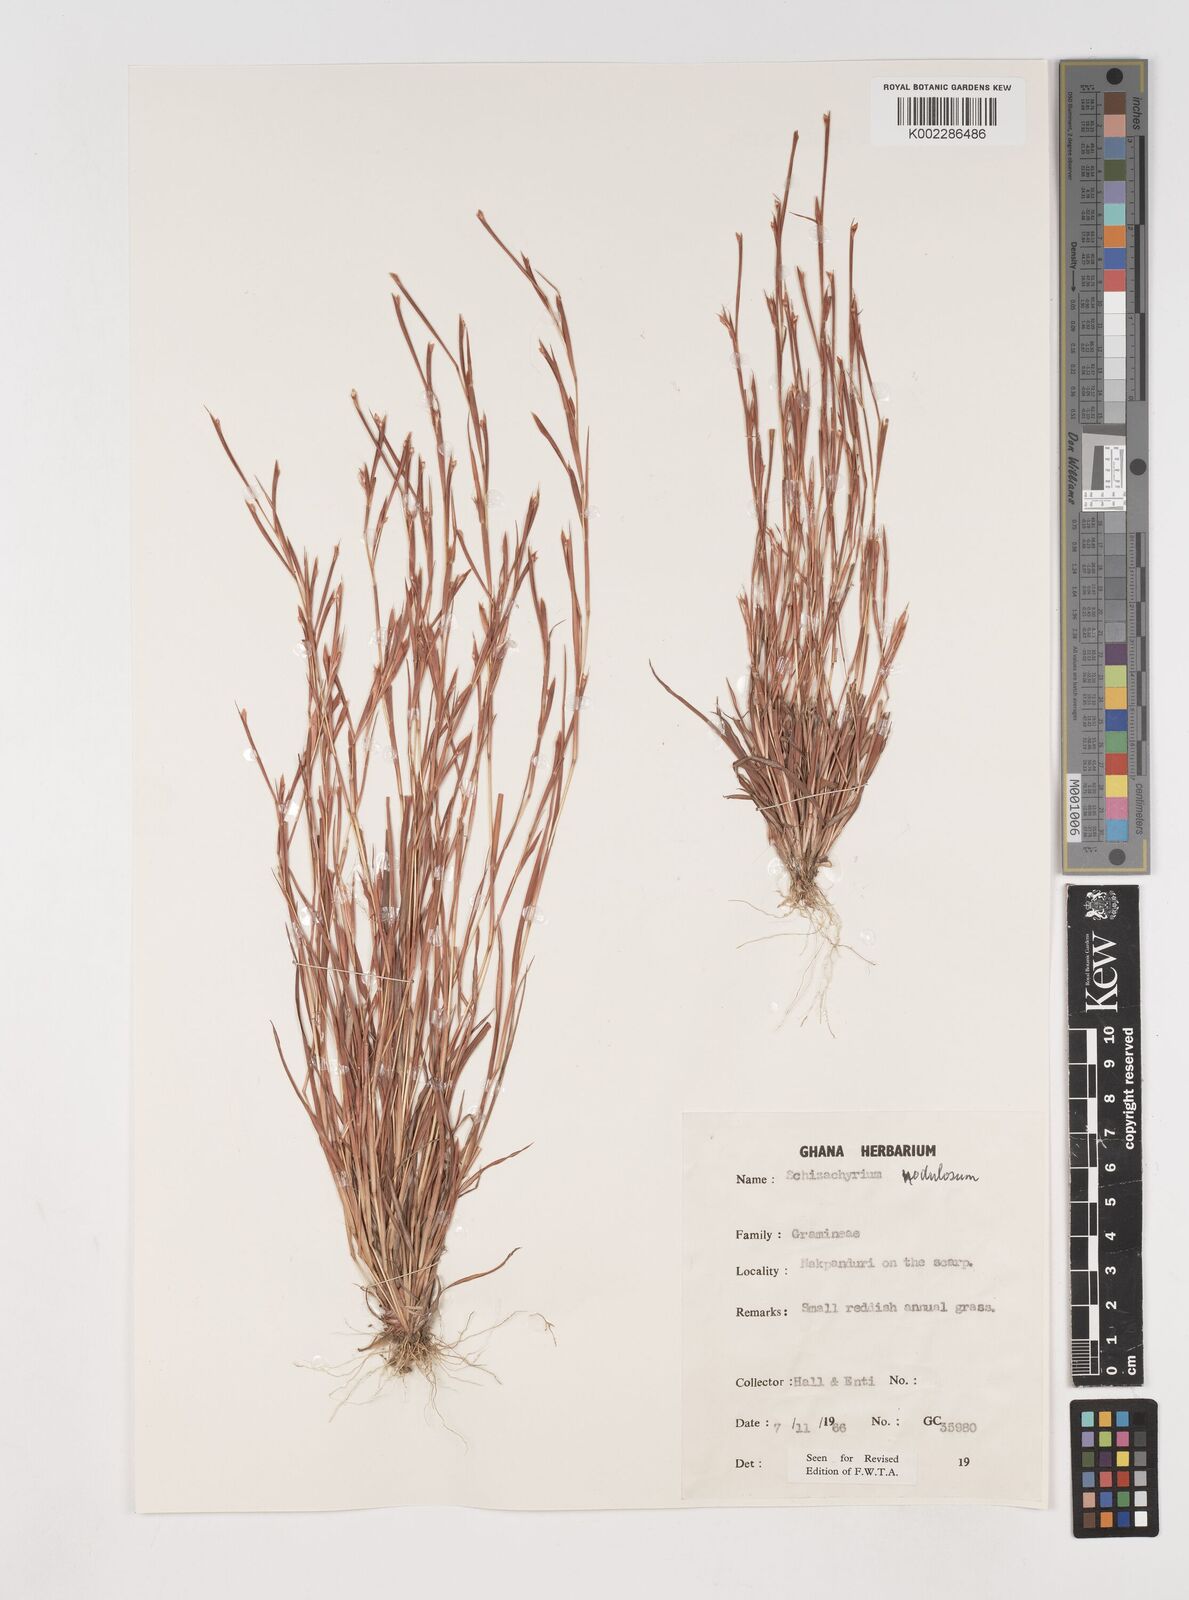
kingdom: Plantae
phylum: Tracheophyta
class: Liliopsida
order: Poales
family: Poaceae
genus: Schizachyrium
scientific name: Schizachyrium nodulosum
